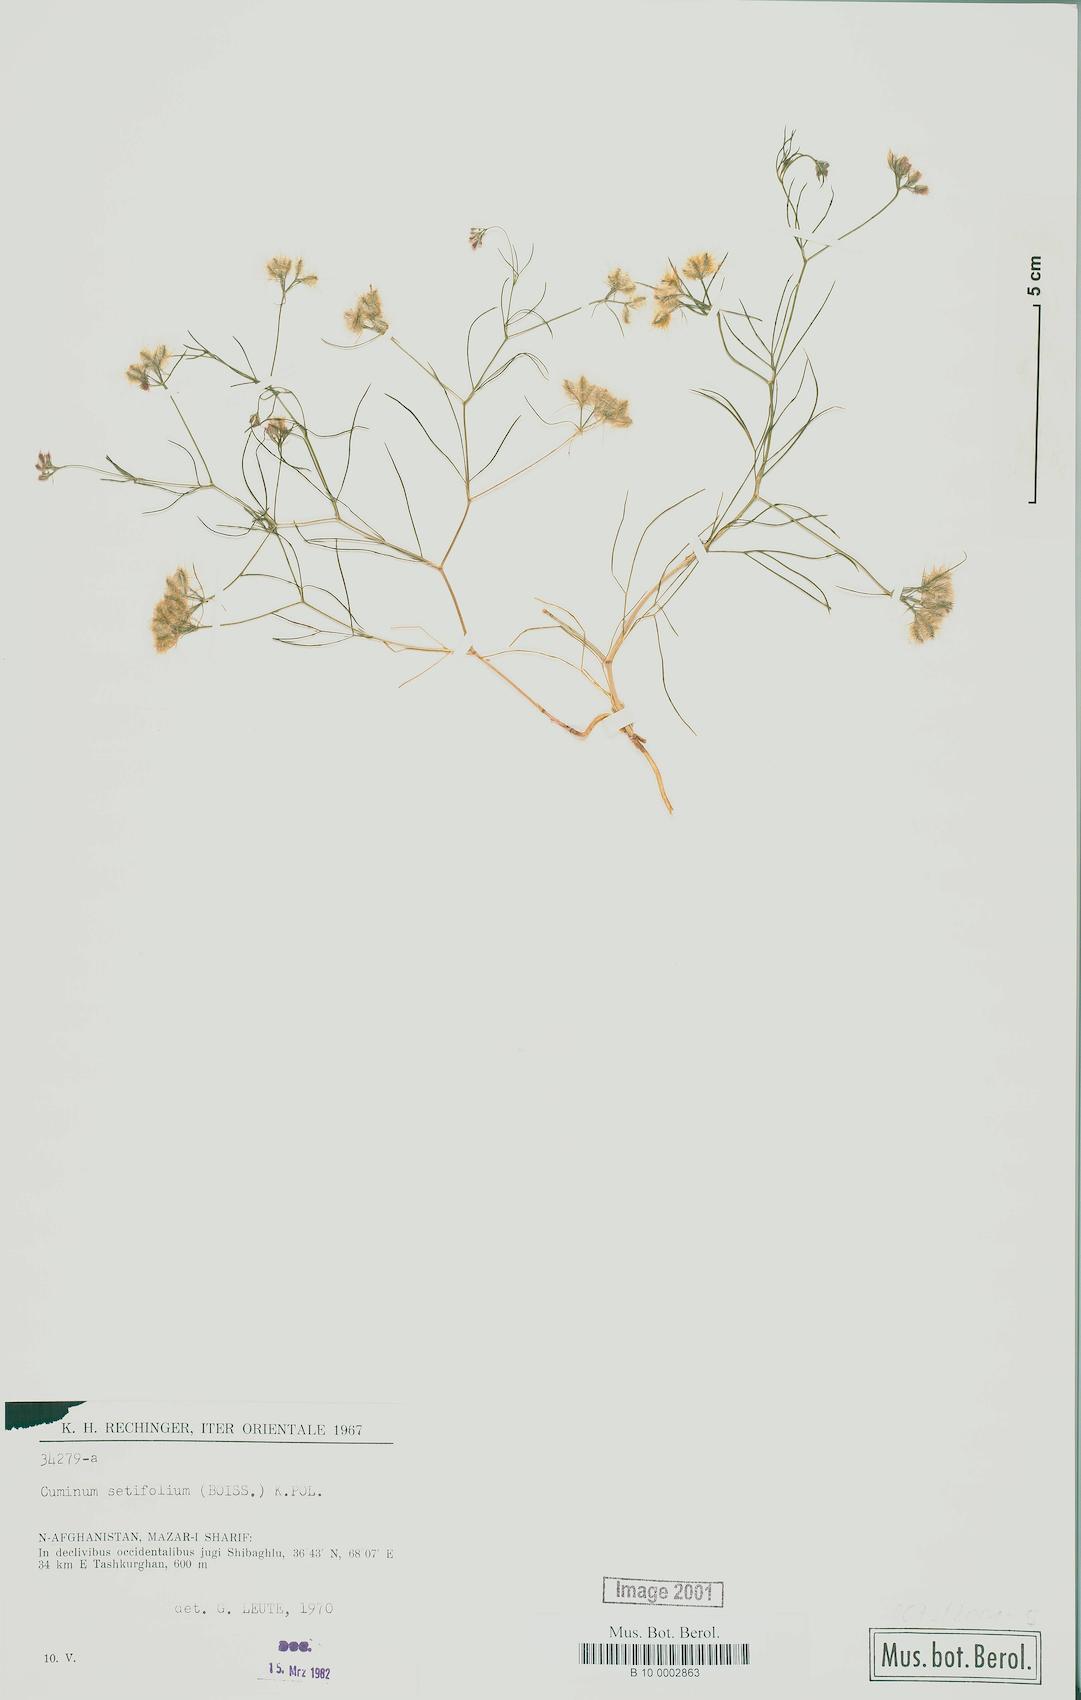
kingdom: Plantae
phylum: Tracheophyta
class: Magnoliopsida
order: Apiales
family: Apiaceae
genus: Cuminum
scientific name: Cuminum setifolium
